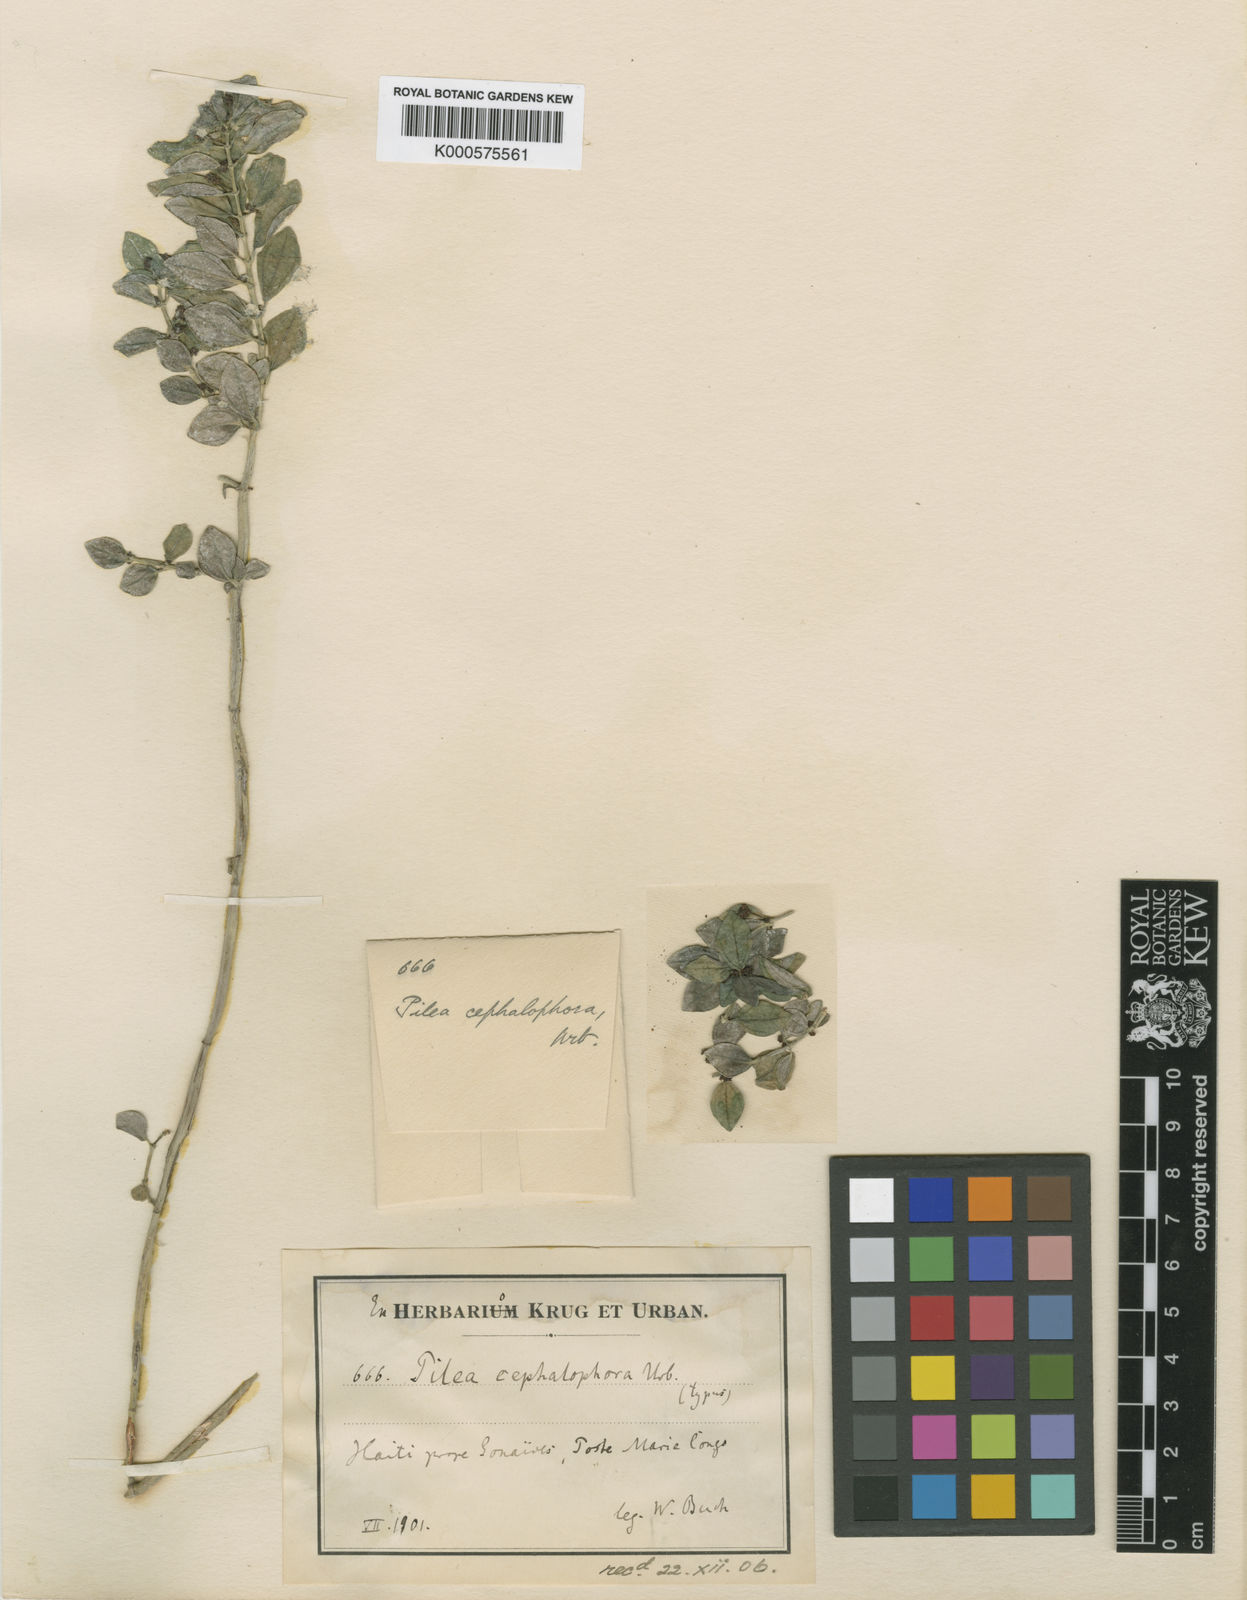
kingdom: Plantae
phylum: Tracheophyta
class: Magnoliopsida
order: Rosales
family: Urticaceae
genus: Pilea
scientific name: Pilea cephalophora
